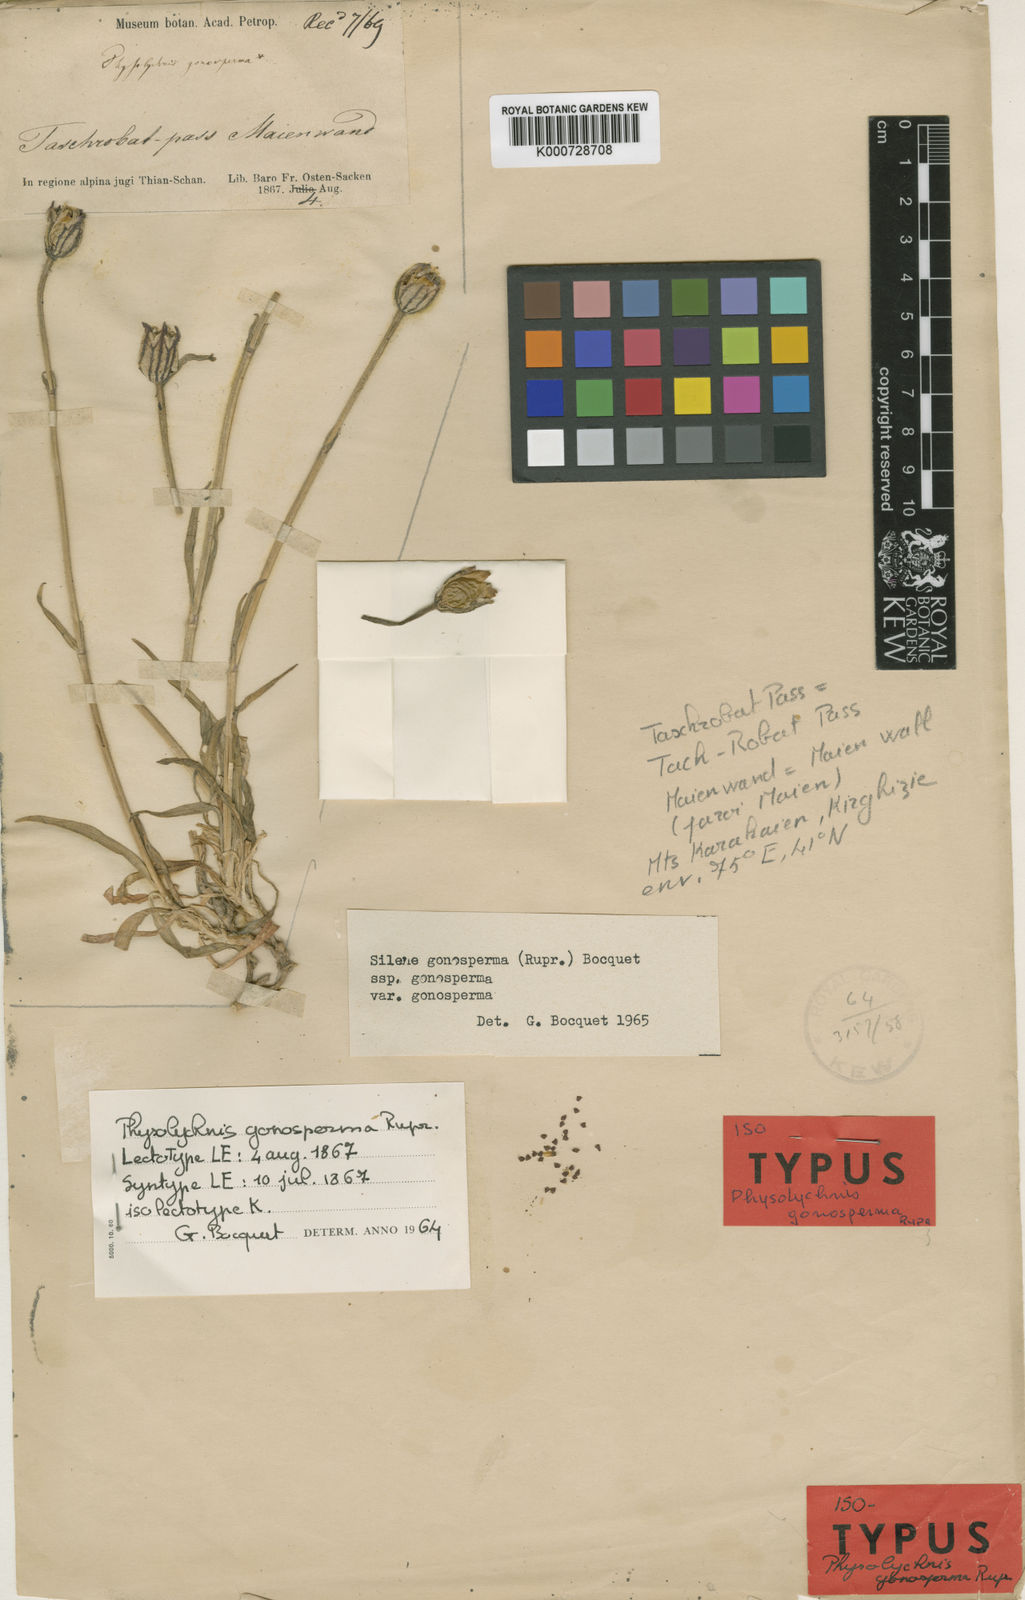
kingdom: Plantae
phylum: Tracheophyta
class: Magnoliopsida
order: Caryophyllales
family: Caryophyllaceae
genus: Silene
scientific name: Silene gonosperma
